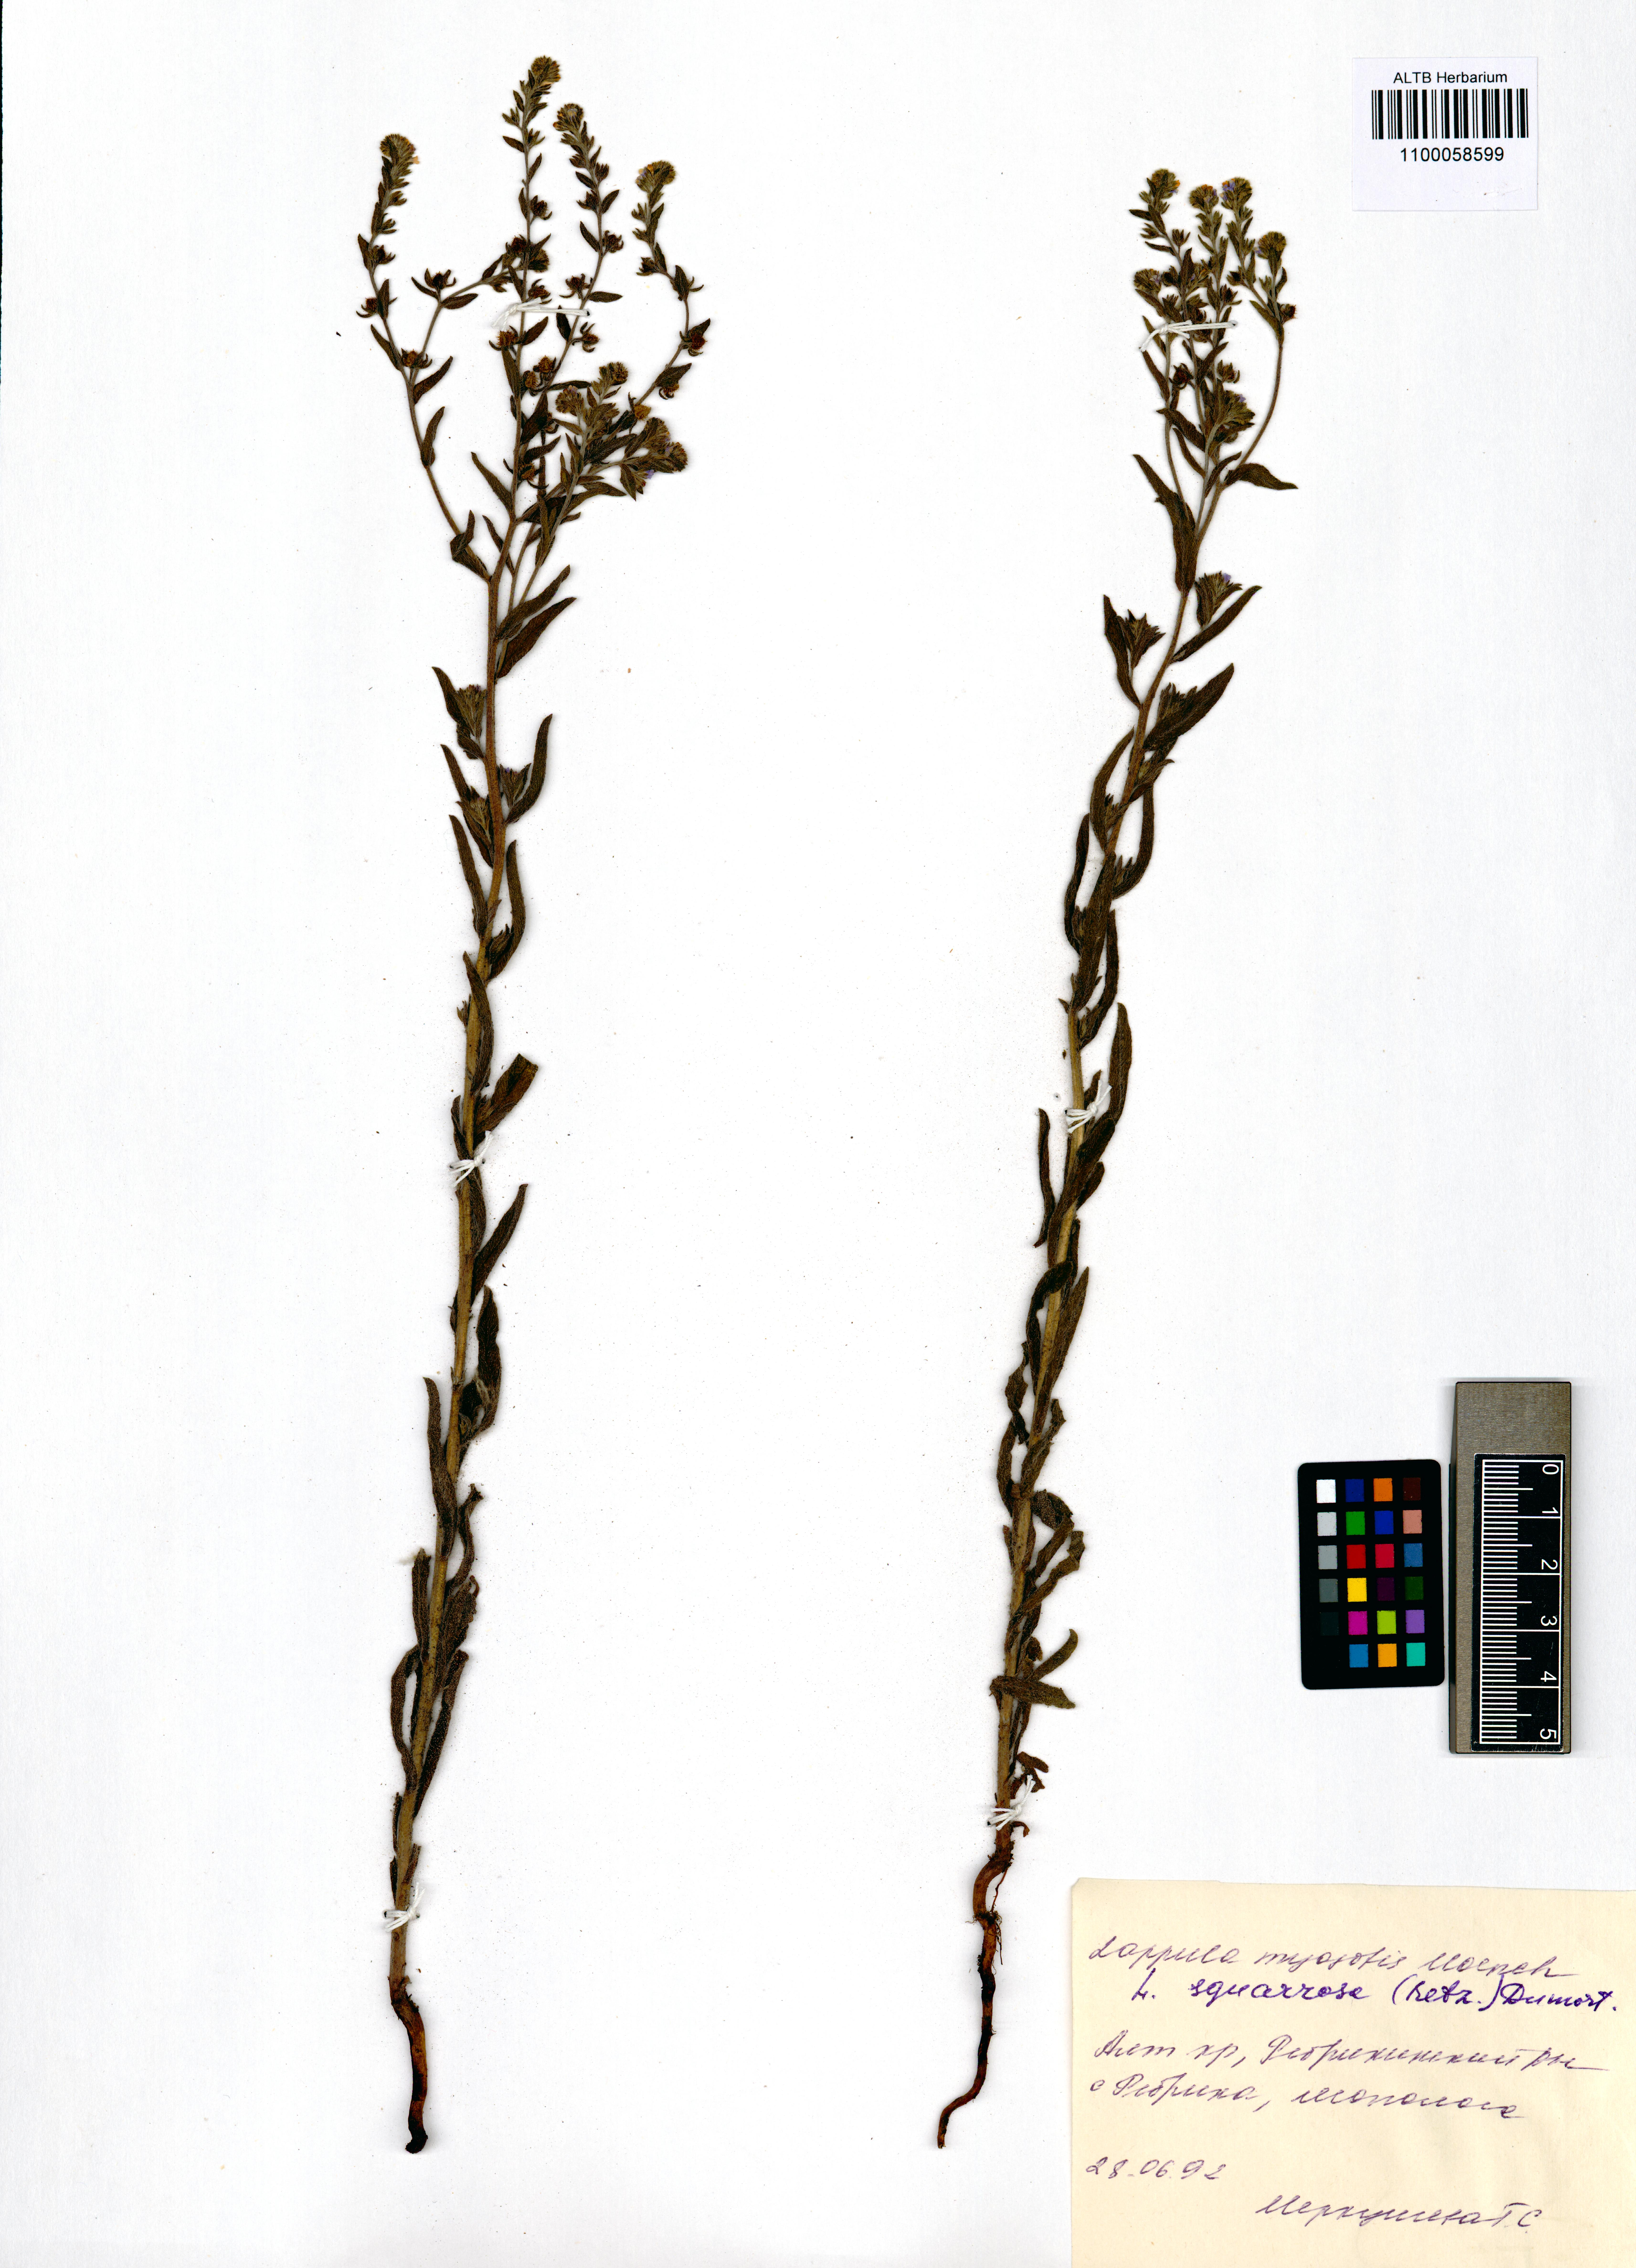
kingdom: Plantae
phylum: Tracheophyta
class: Magnoliopsida
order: Boraginales
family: Boraginaceae
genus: Lappula
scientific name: Lappula squarrosa
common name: European stickseed
